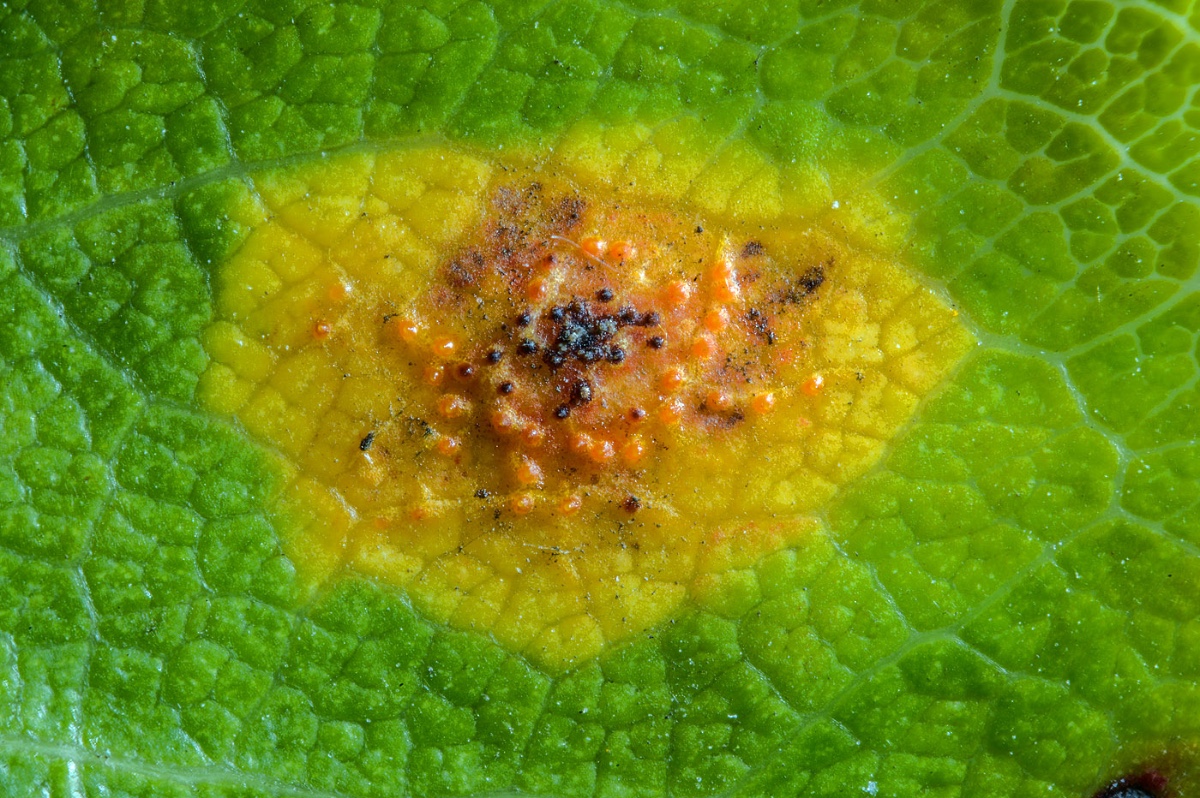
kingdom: Fungi
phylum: Basidiomycota
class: Pucciniomycetes
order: Pucciniales
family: Gymnosporangiaceae
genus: Gymnosporangium
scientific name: Gymnosporangium sabinae
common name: pæregitter-bævrerust
